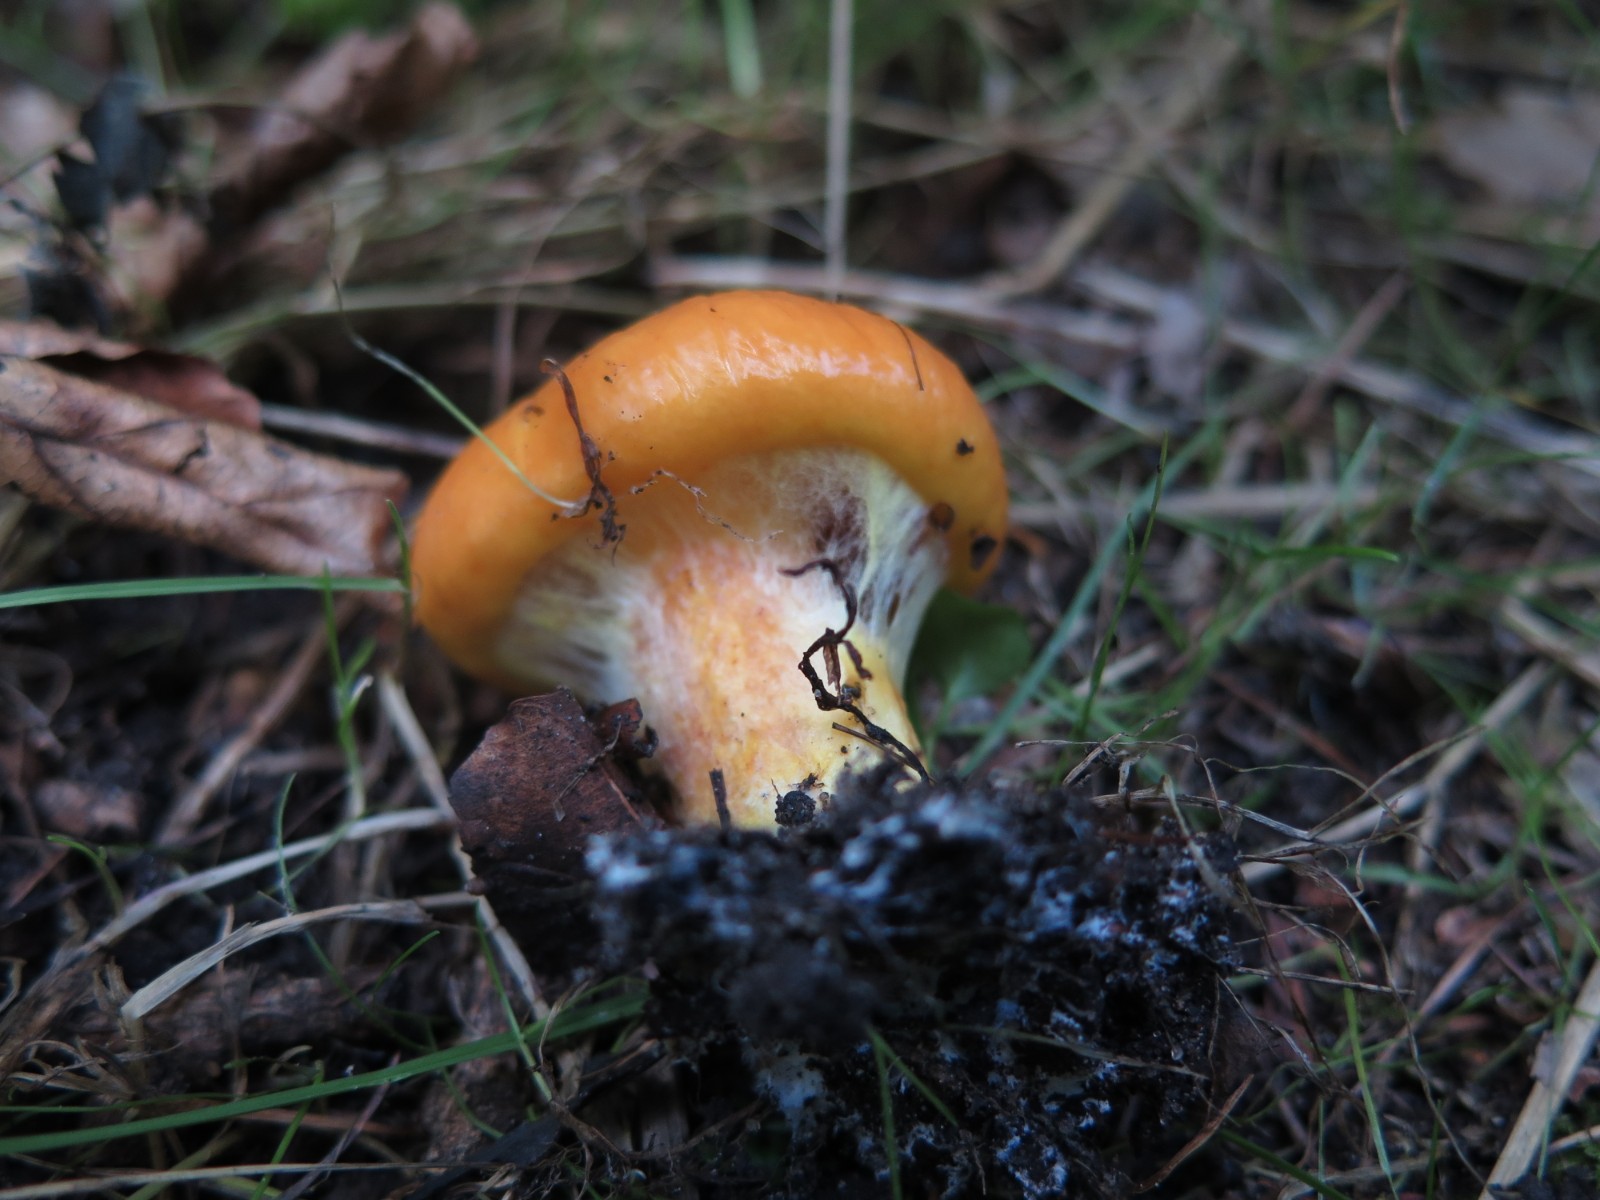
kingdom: Fungi
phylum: Basidiomycota
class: Agaricomycetes
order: Boletales
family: Suillaceae
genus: Suillus
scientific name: Suillus grevillei
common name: lærke-slimrørhat
